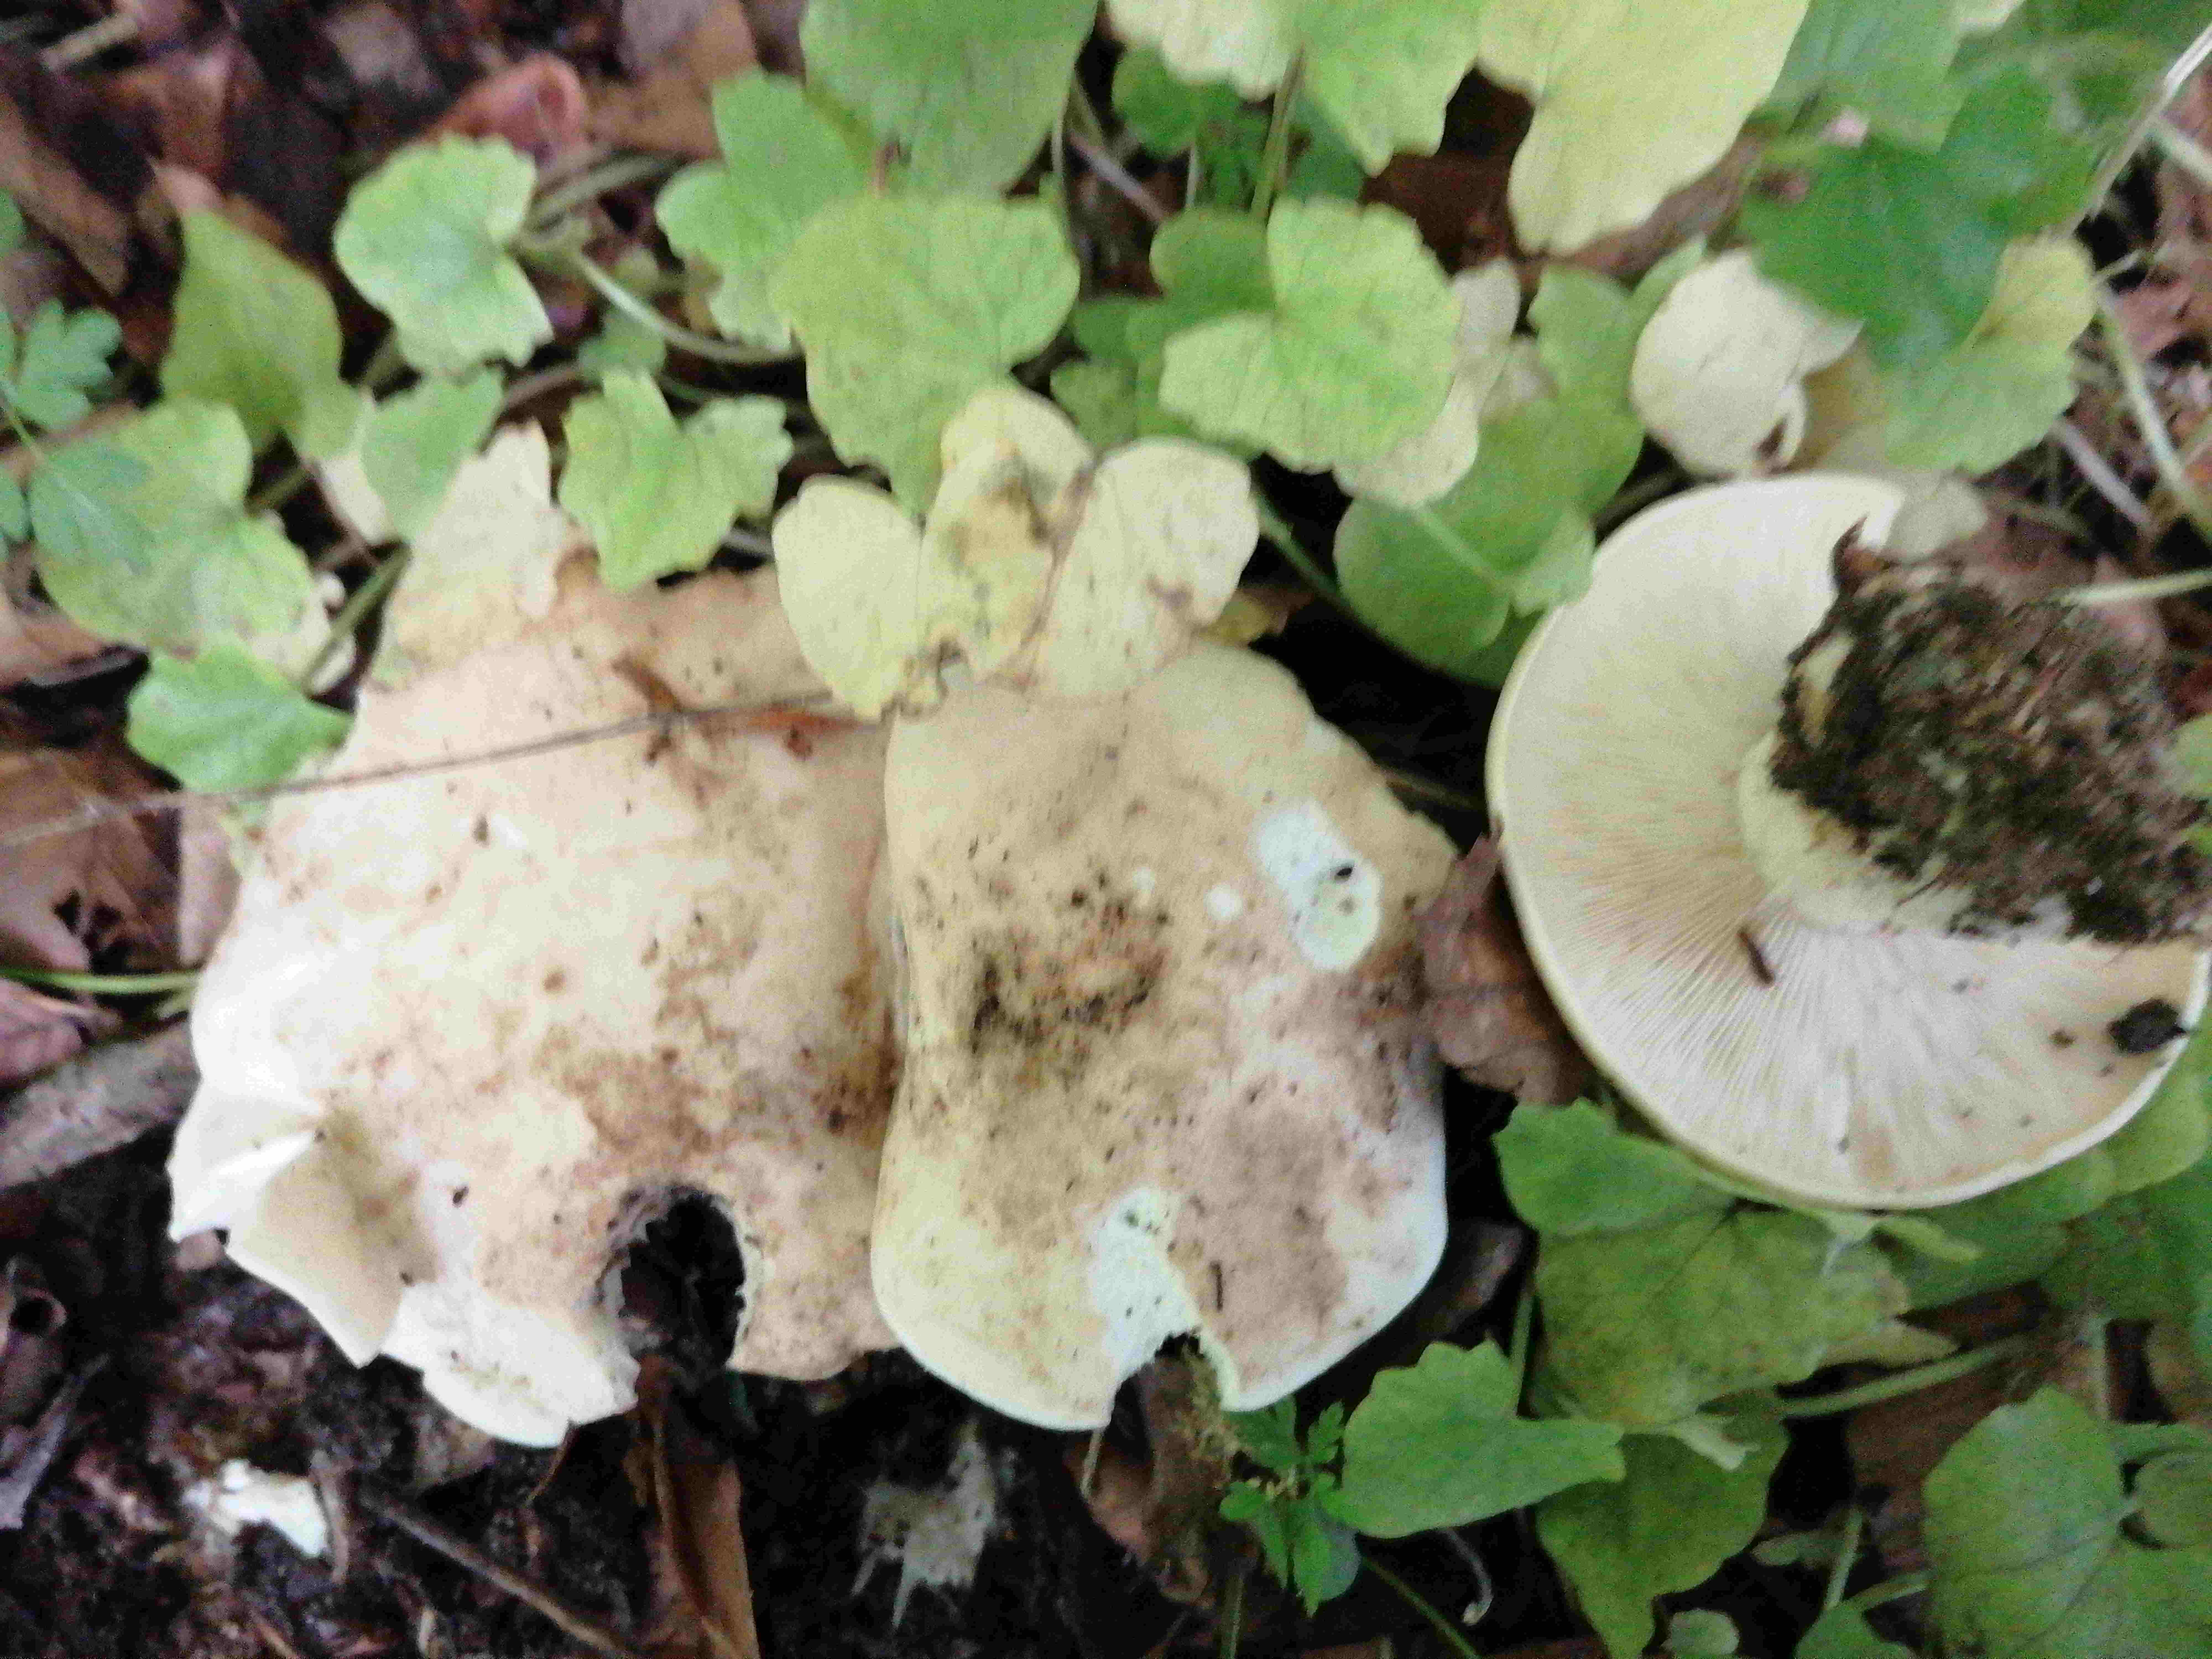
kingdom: Fungi
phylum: Basidiomycota
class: Agaricomycetes
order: Agaricales
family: Lyophyllaceae
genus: Calocybe
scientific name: Calocybe gambosa
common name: vårmusseron
